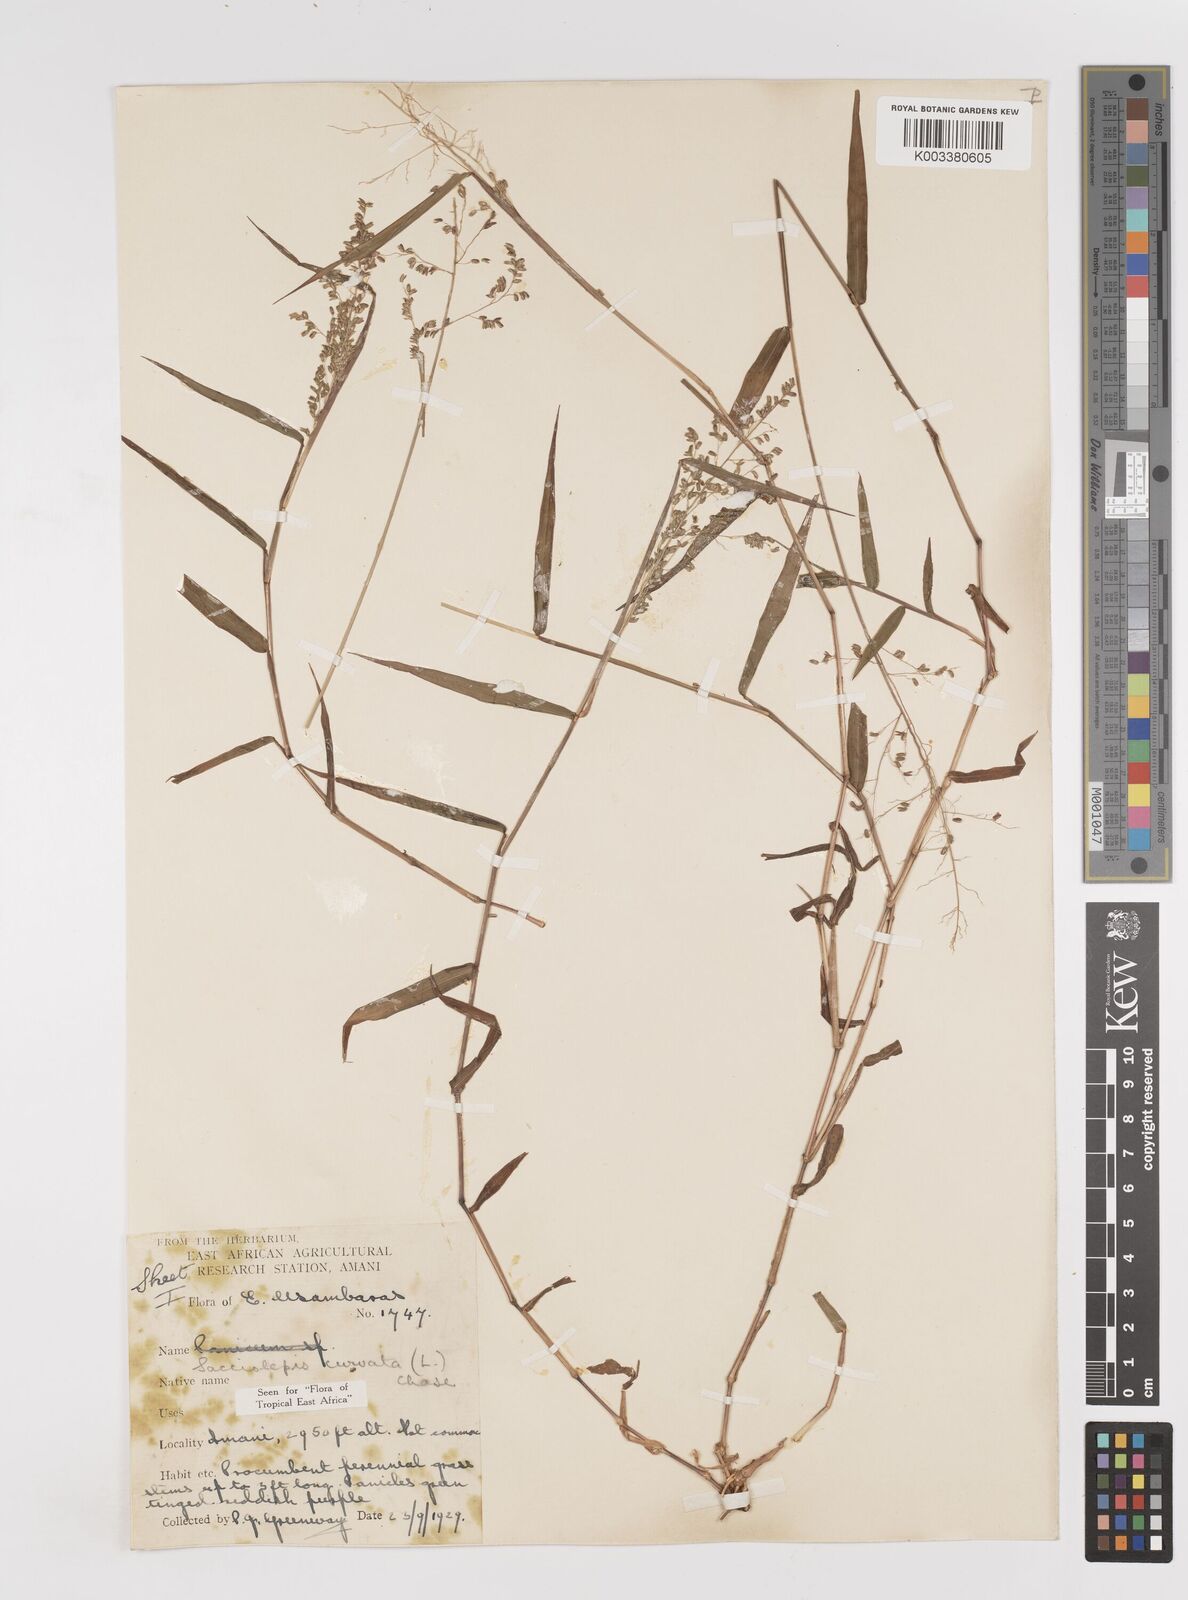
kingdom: Plantae
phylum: Tracheophyta
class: Liliopsida
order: Poales
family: Poaceae
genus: Sacciolepis
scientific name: Sacciolepis curvata
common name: Forest hood grass
